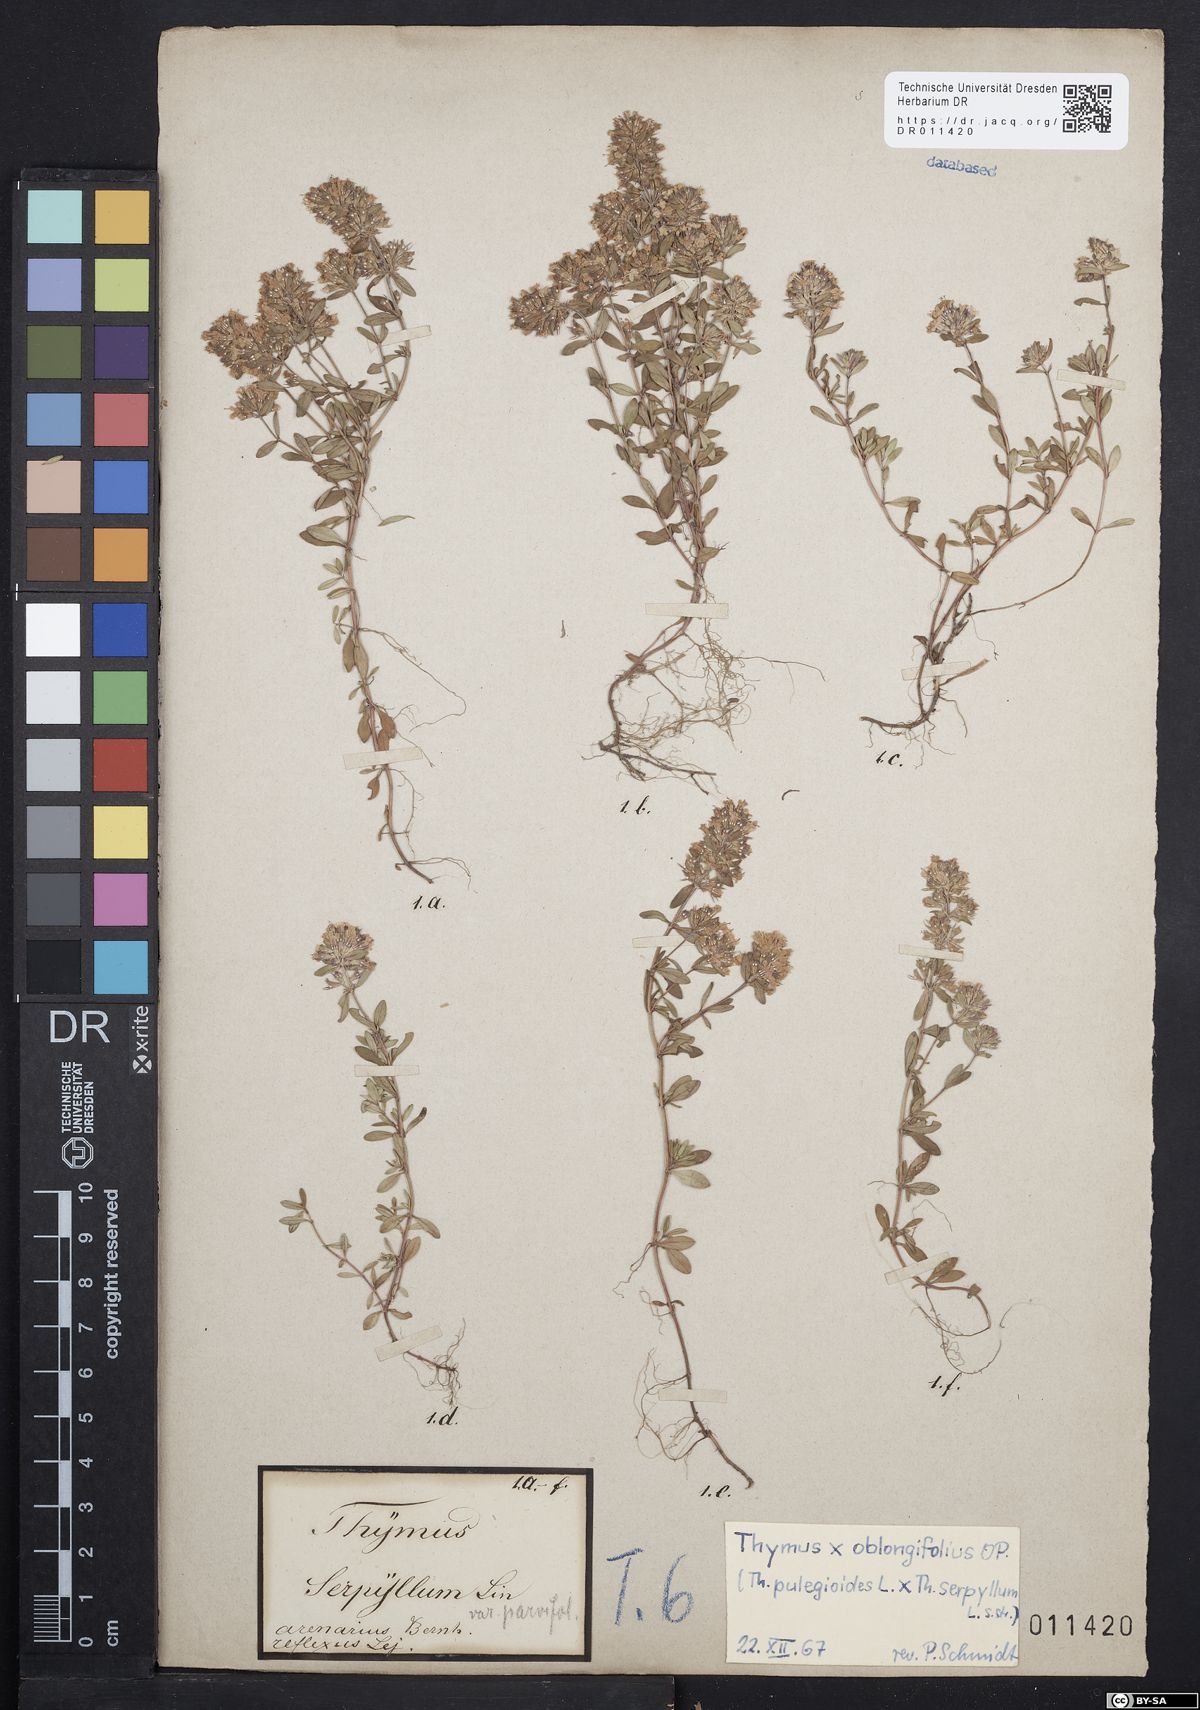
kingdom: Plantae
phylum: Tracheophyta
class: Magnoliopsida
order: Lamiales
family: Lamiaceae
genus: Thymus
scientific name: Thymus oblongifolius
